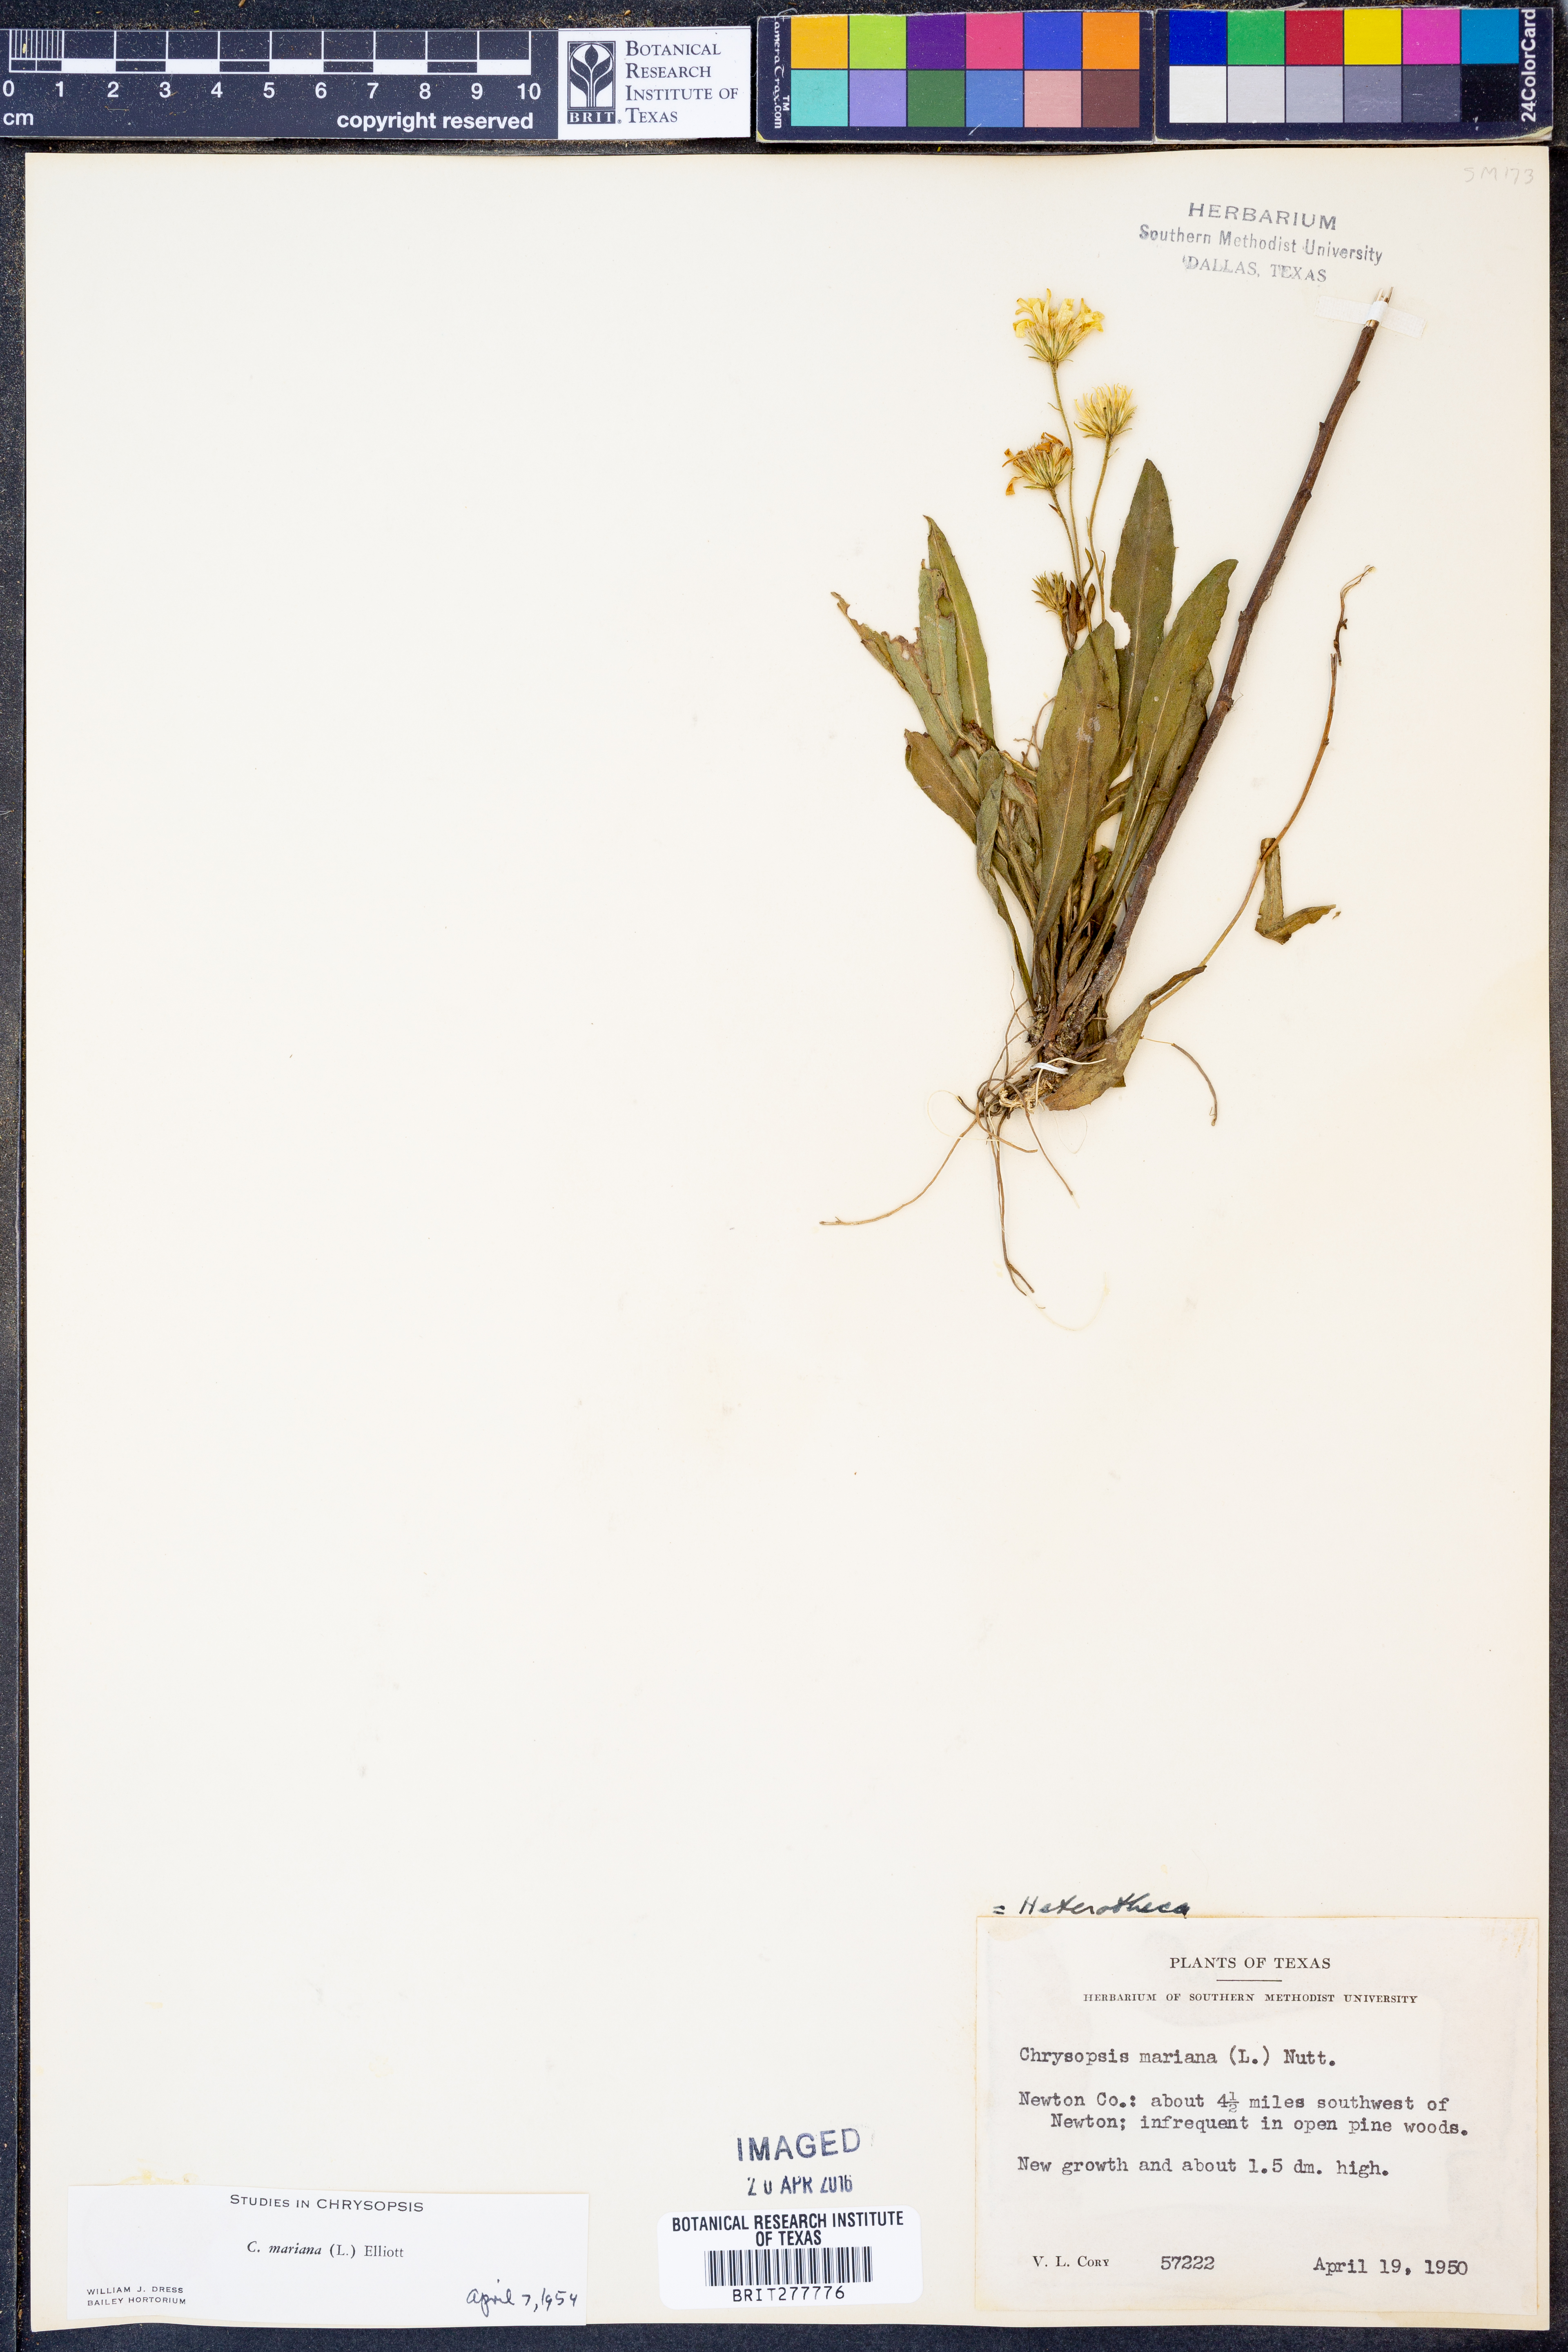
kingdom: Plantae
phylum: Tracheophyta
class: Magnoliopsida
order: Asterales
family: Asteraceae
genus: Chrysopsis
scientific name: Chrysopsis mariana
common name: Maryland golden-aster
